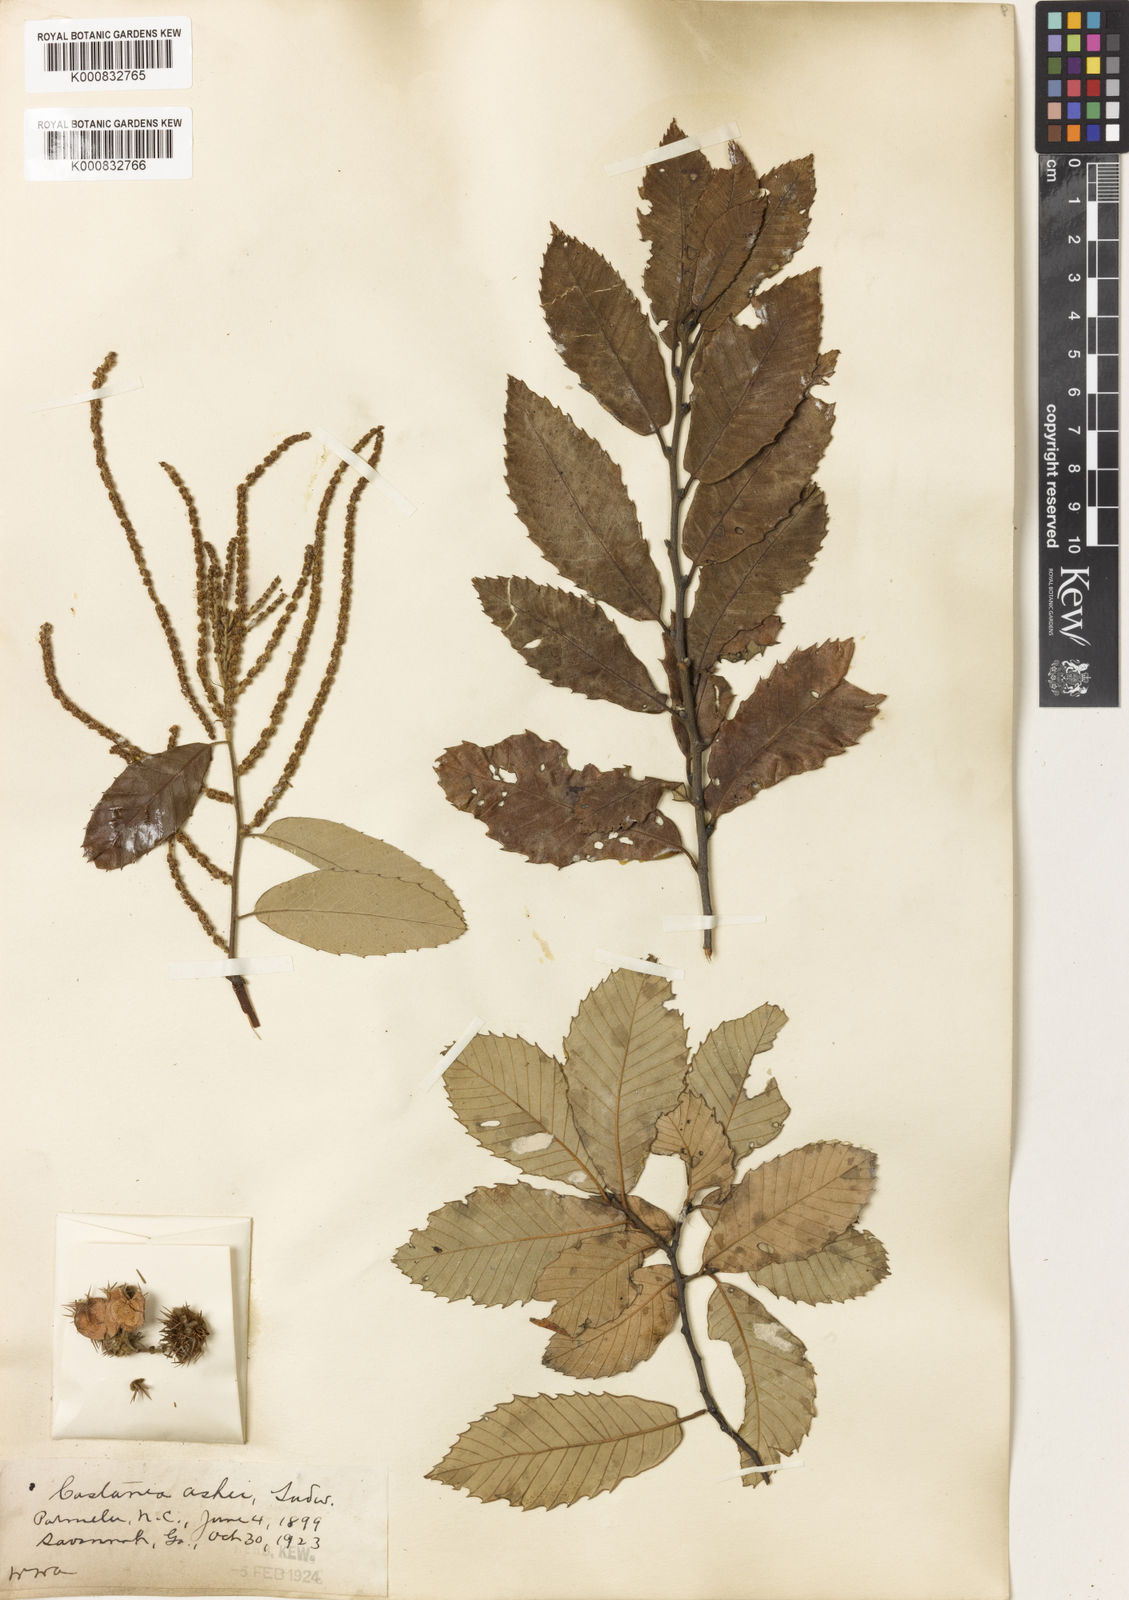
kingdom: Plantae
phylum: Tracheophyta
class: Magnoliopsida
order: Fagales
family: Fagaceae
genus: Castanea
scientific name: Castanea
